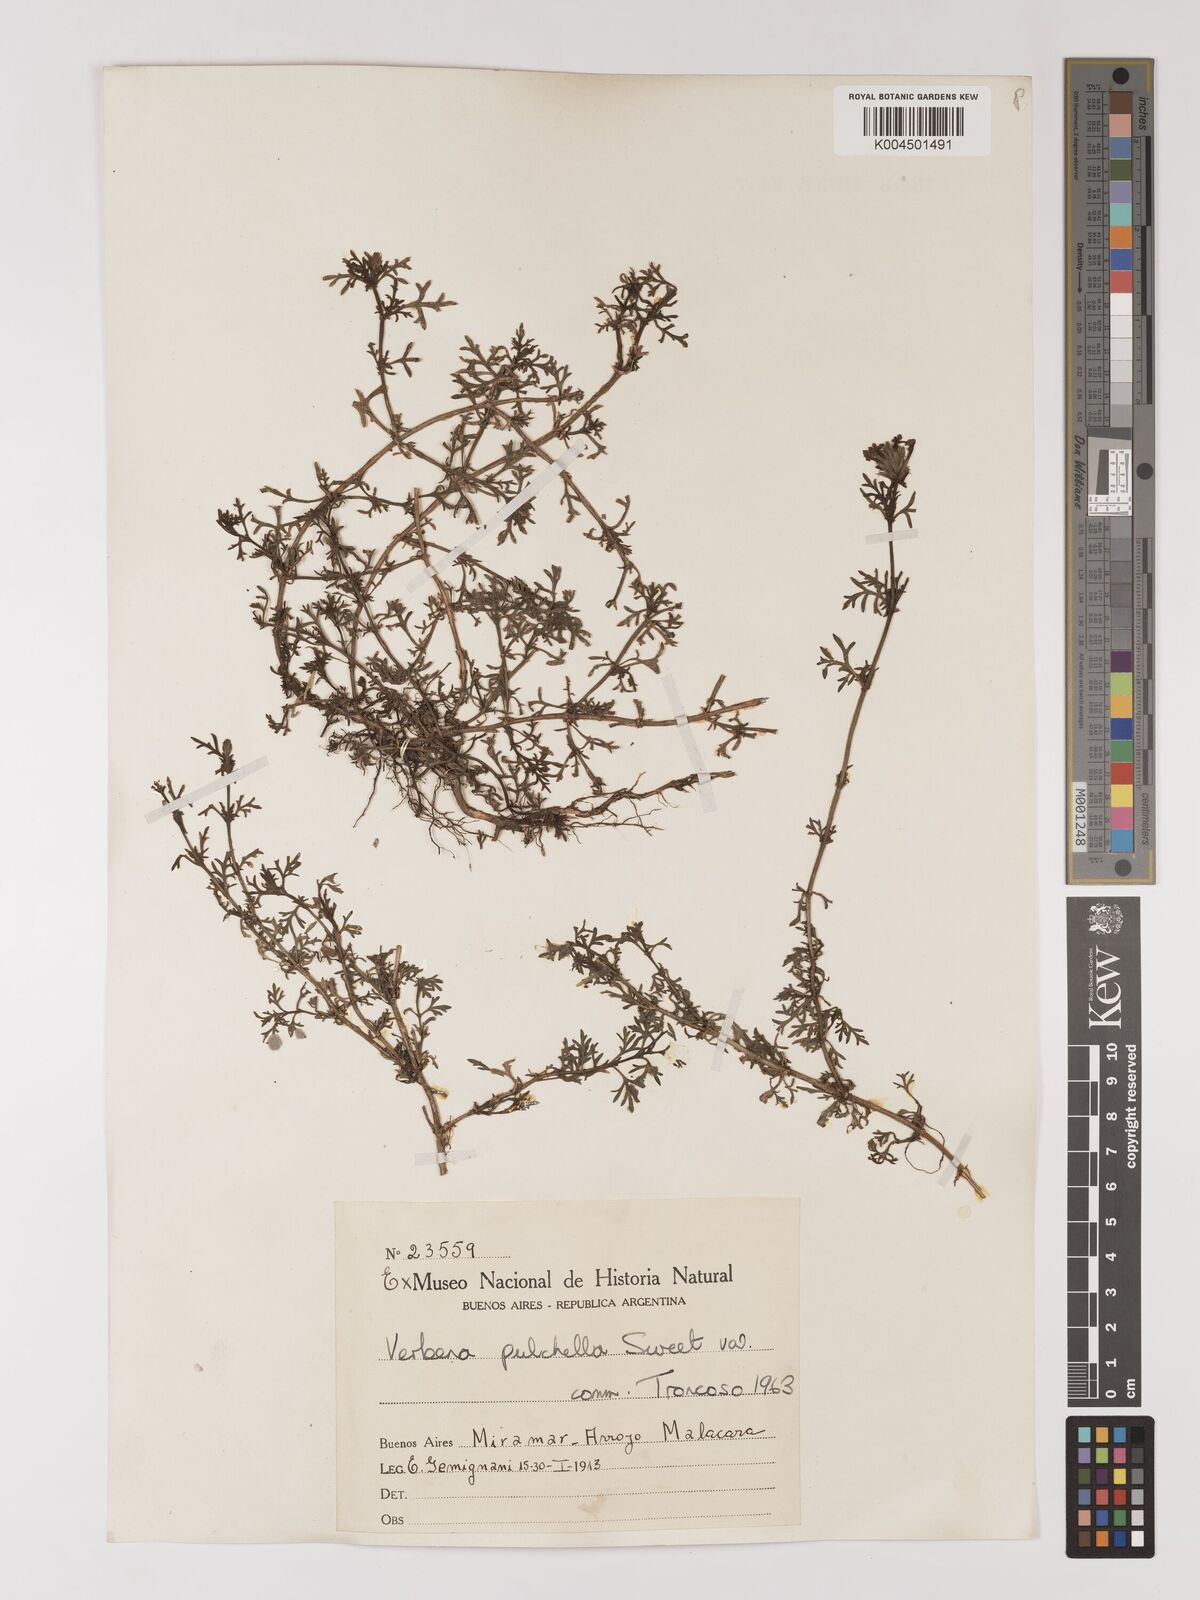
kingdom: Plantae
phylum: Tracheophyta
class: Magnoliopsida
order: Lamiales
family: Verbenaceae
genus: Verbena
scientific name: Verbena tenera
